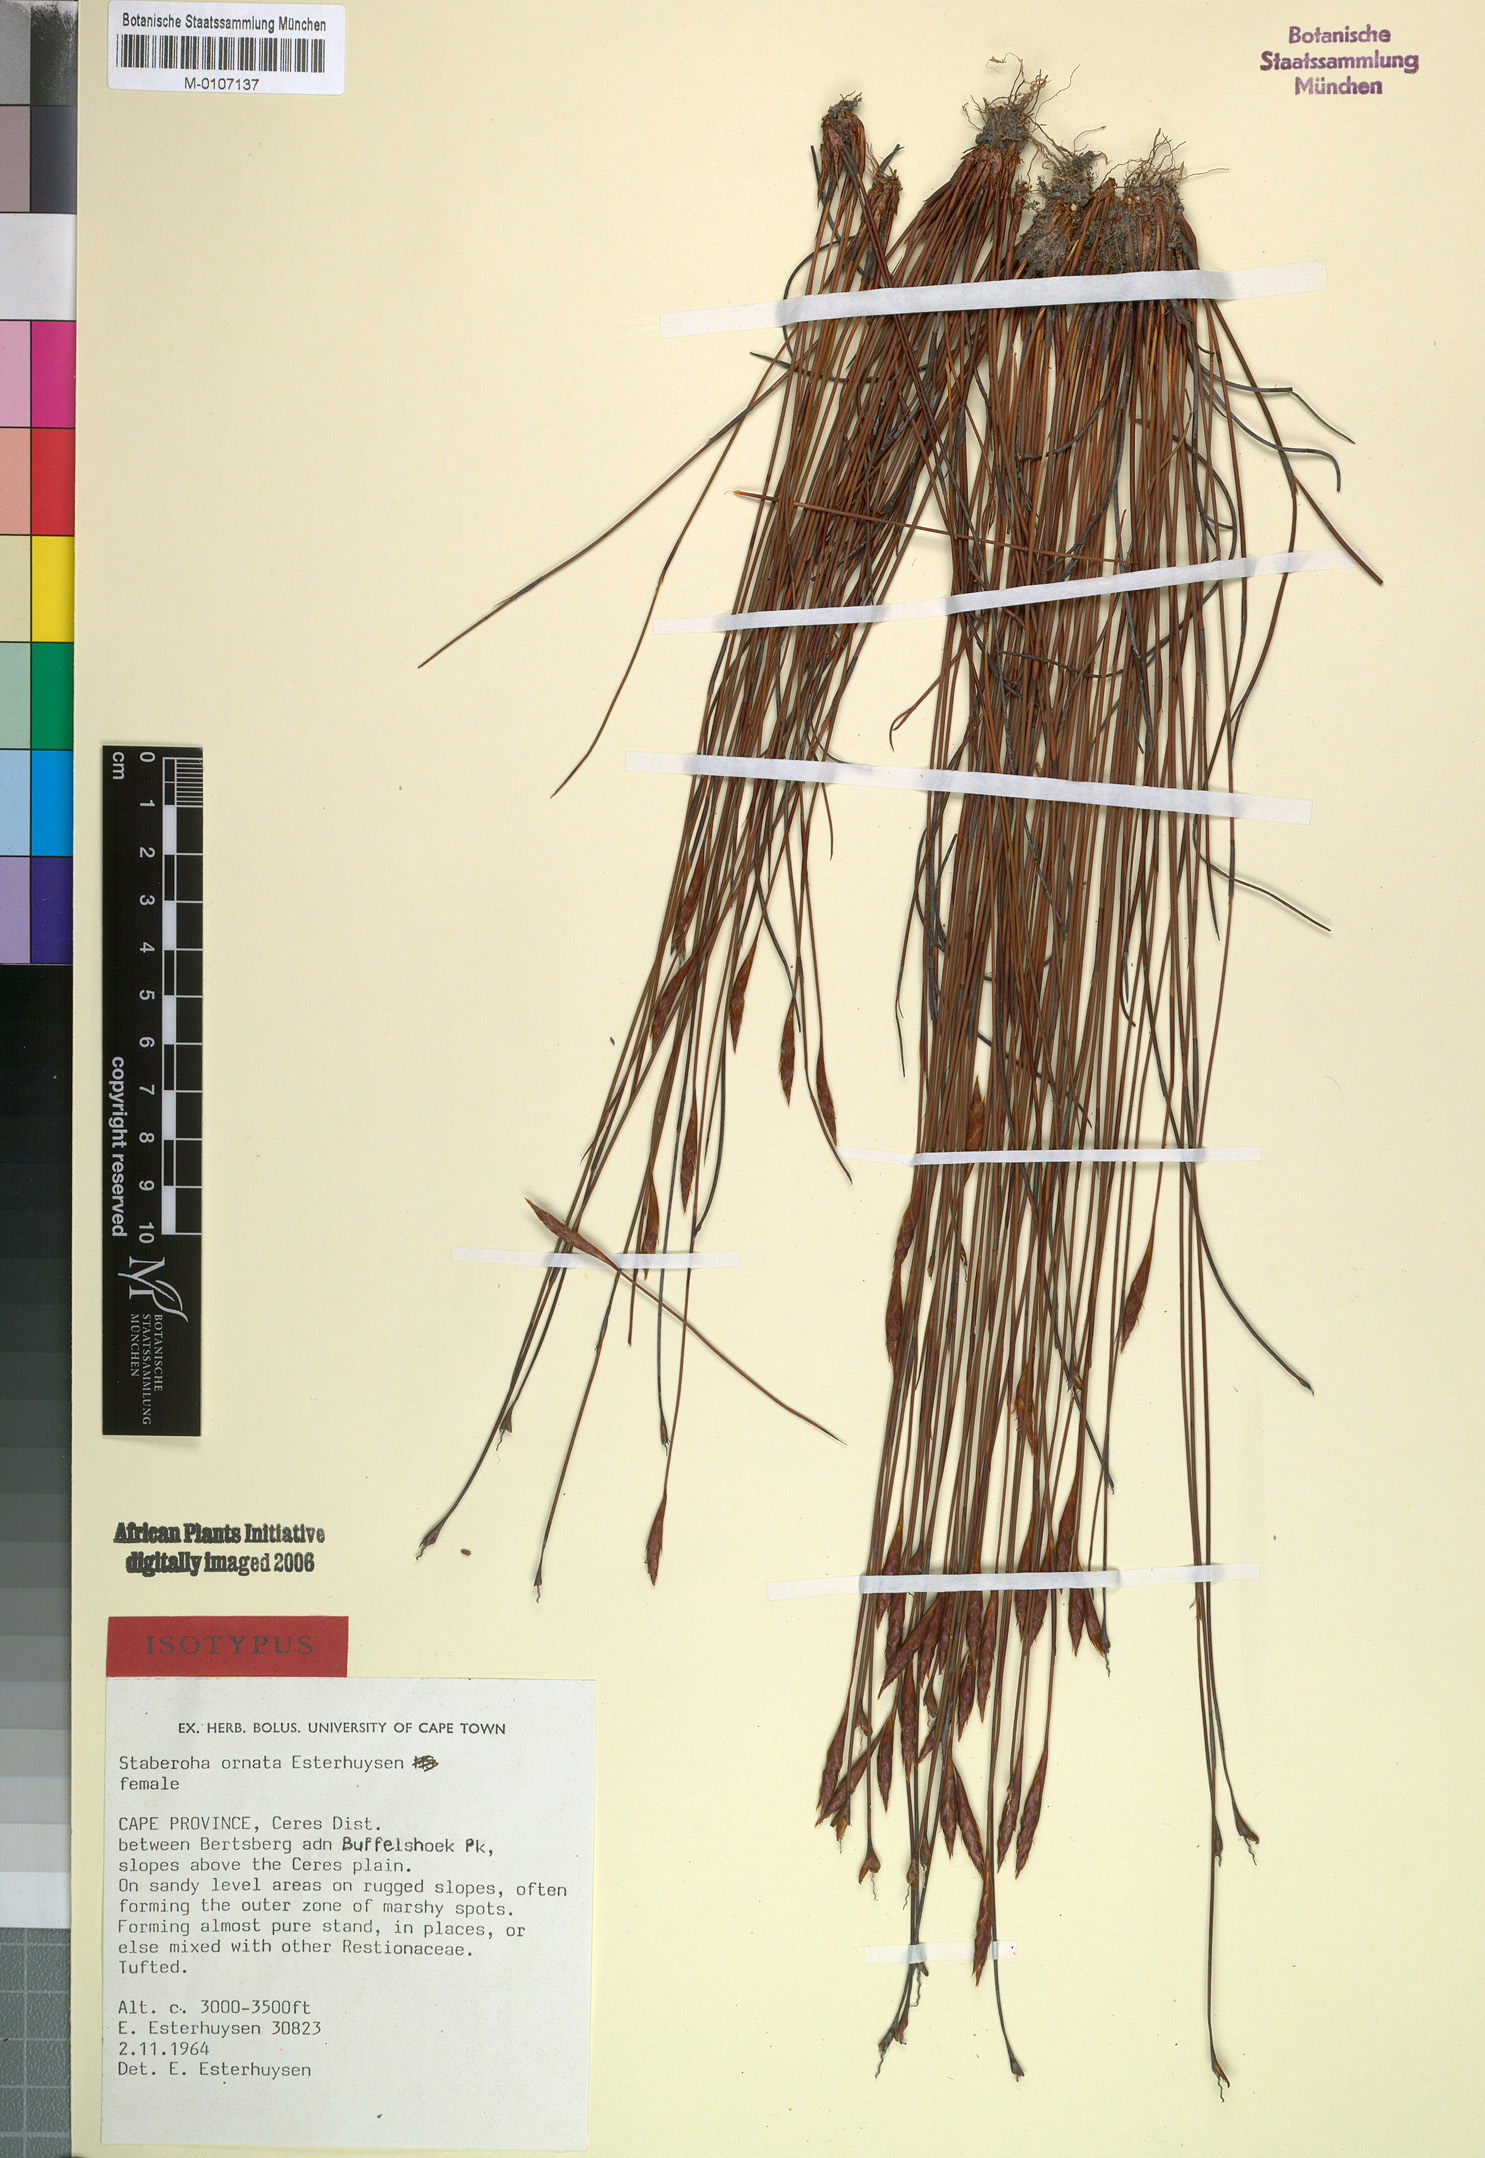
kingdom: Plantae
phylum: Tracheophyta
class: Liliopsida
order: Poales
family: Restionaceae
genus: Staberoha
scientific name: Staberoha ornata
